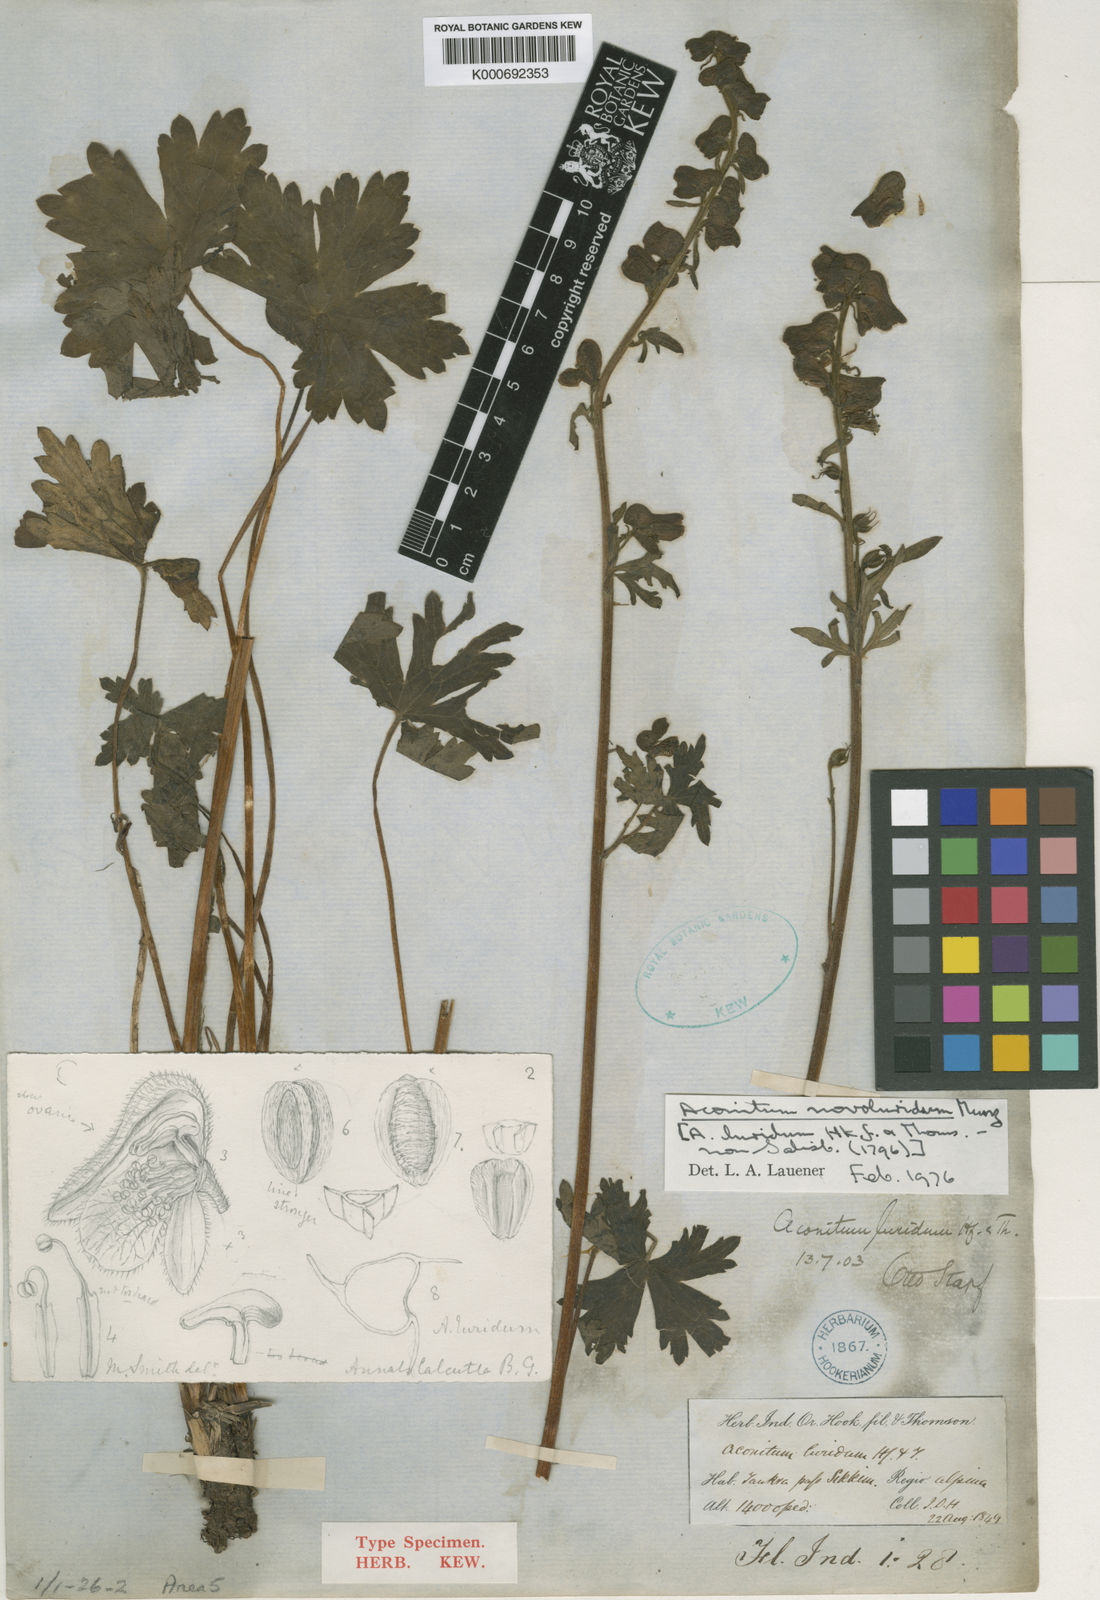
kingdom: Plantae
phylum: Tracheophyta
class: Magnoliopsida
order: Ranunculales
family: Ranunculaceae
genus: Aconitum
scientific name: Aconitum novoluridum
